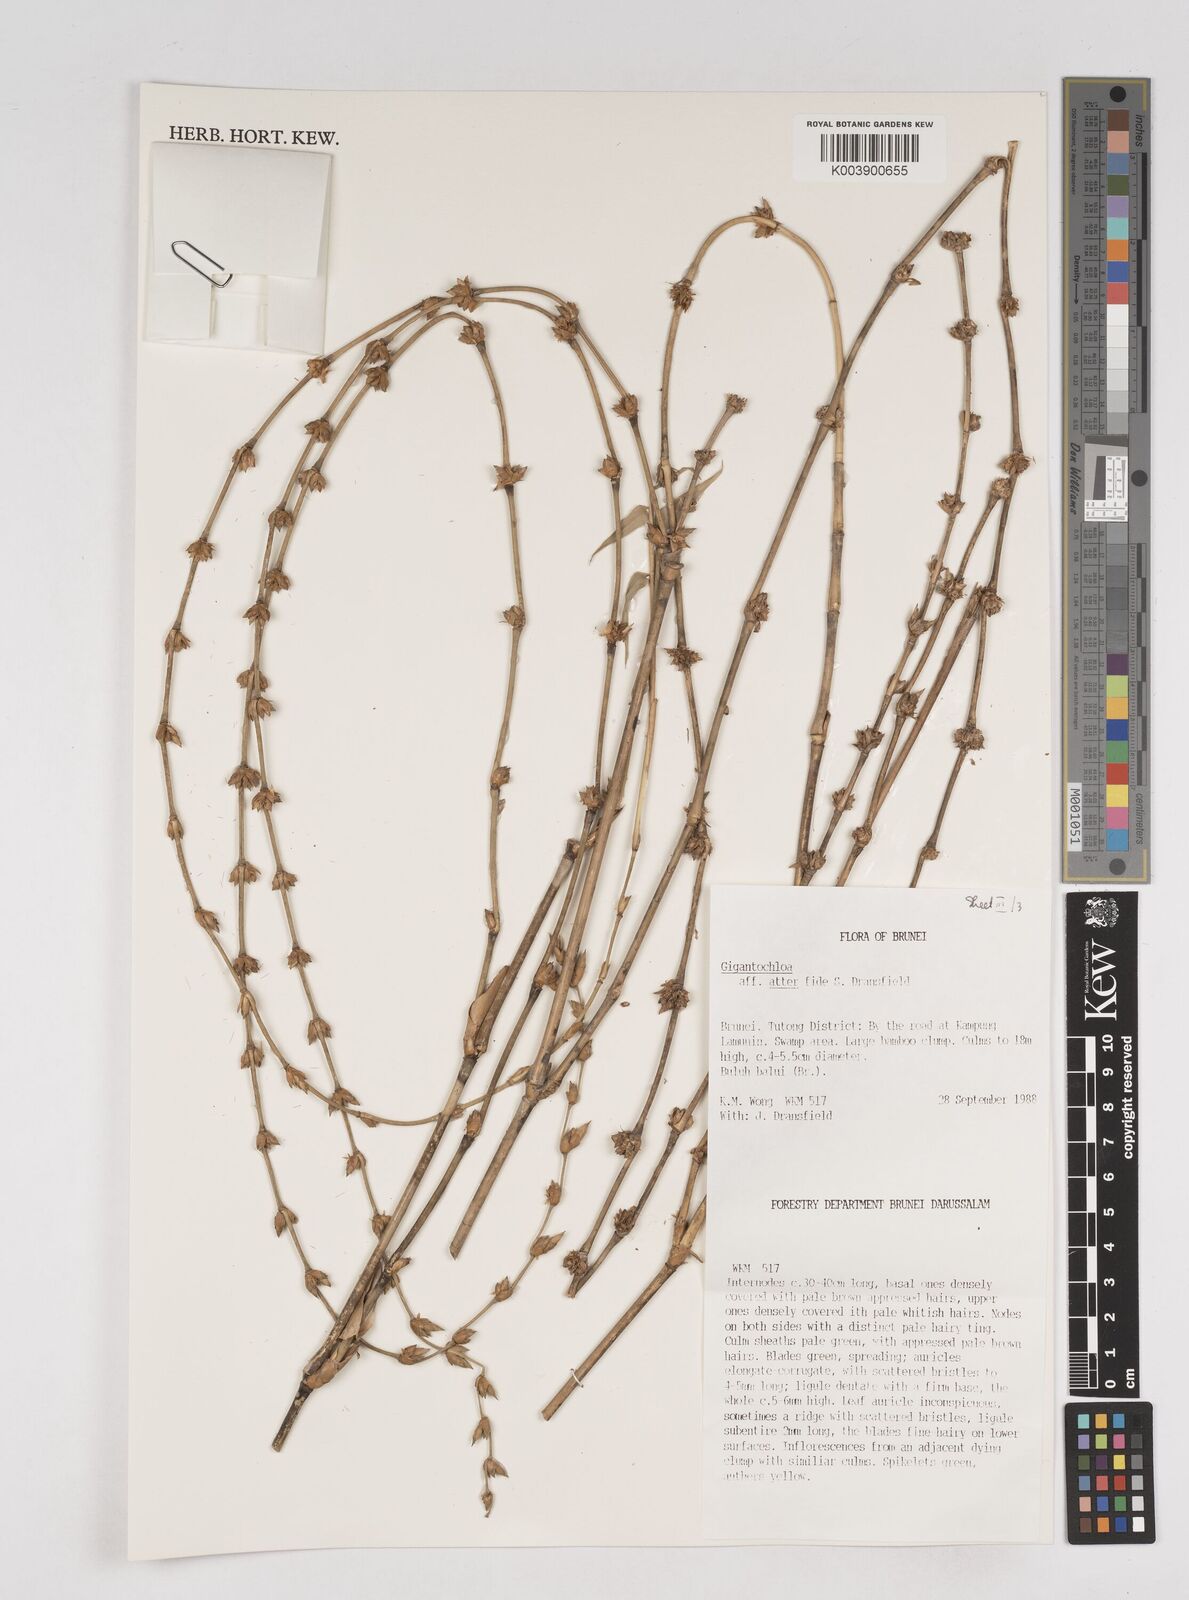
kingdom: Plantae
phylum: Tracheophyta
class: Liliopsida
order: Poales
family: Poaceae
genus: Gigantochloa
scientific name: Gigantochloa
